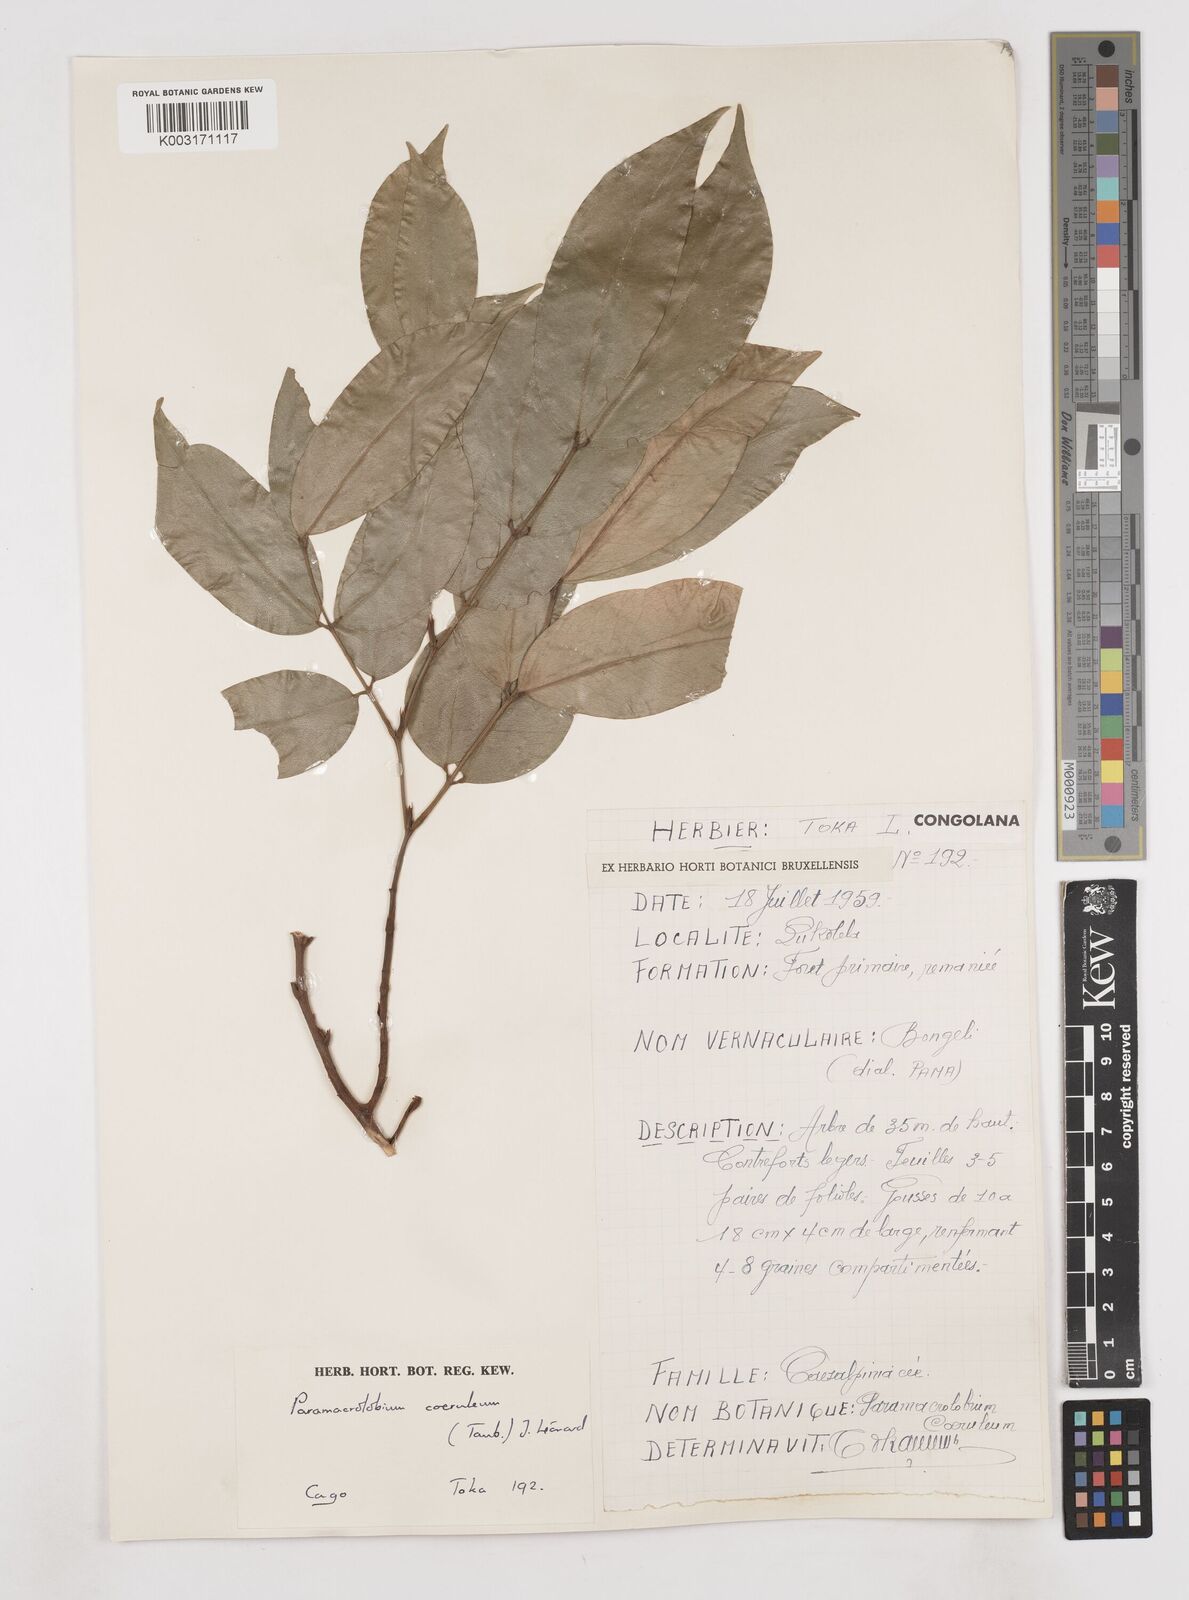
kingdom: Plantae
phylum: Tracheophyta
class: Magnoliopsida
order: Fabales
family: Fabaceae
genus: Paramacrolobium
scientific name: Paramacrolobium coeruleum
